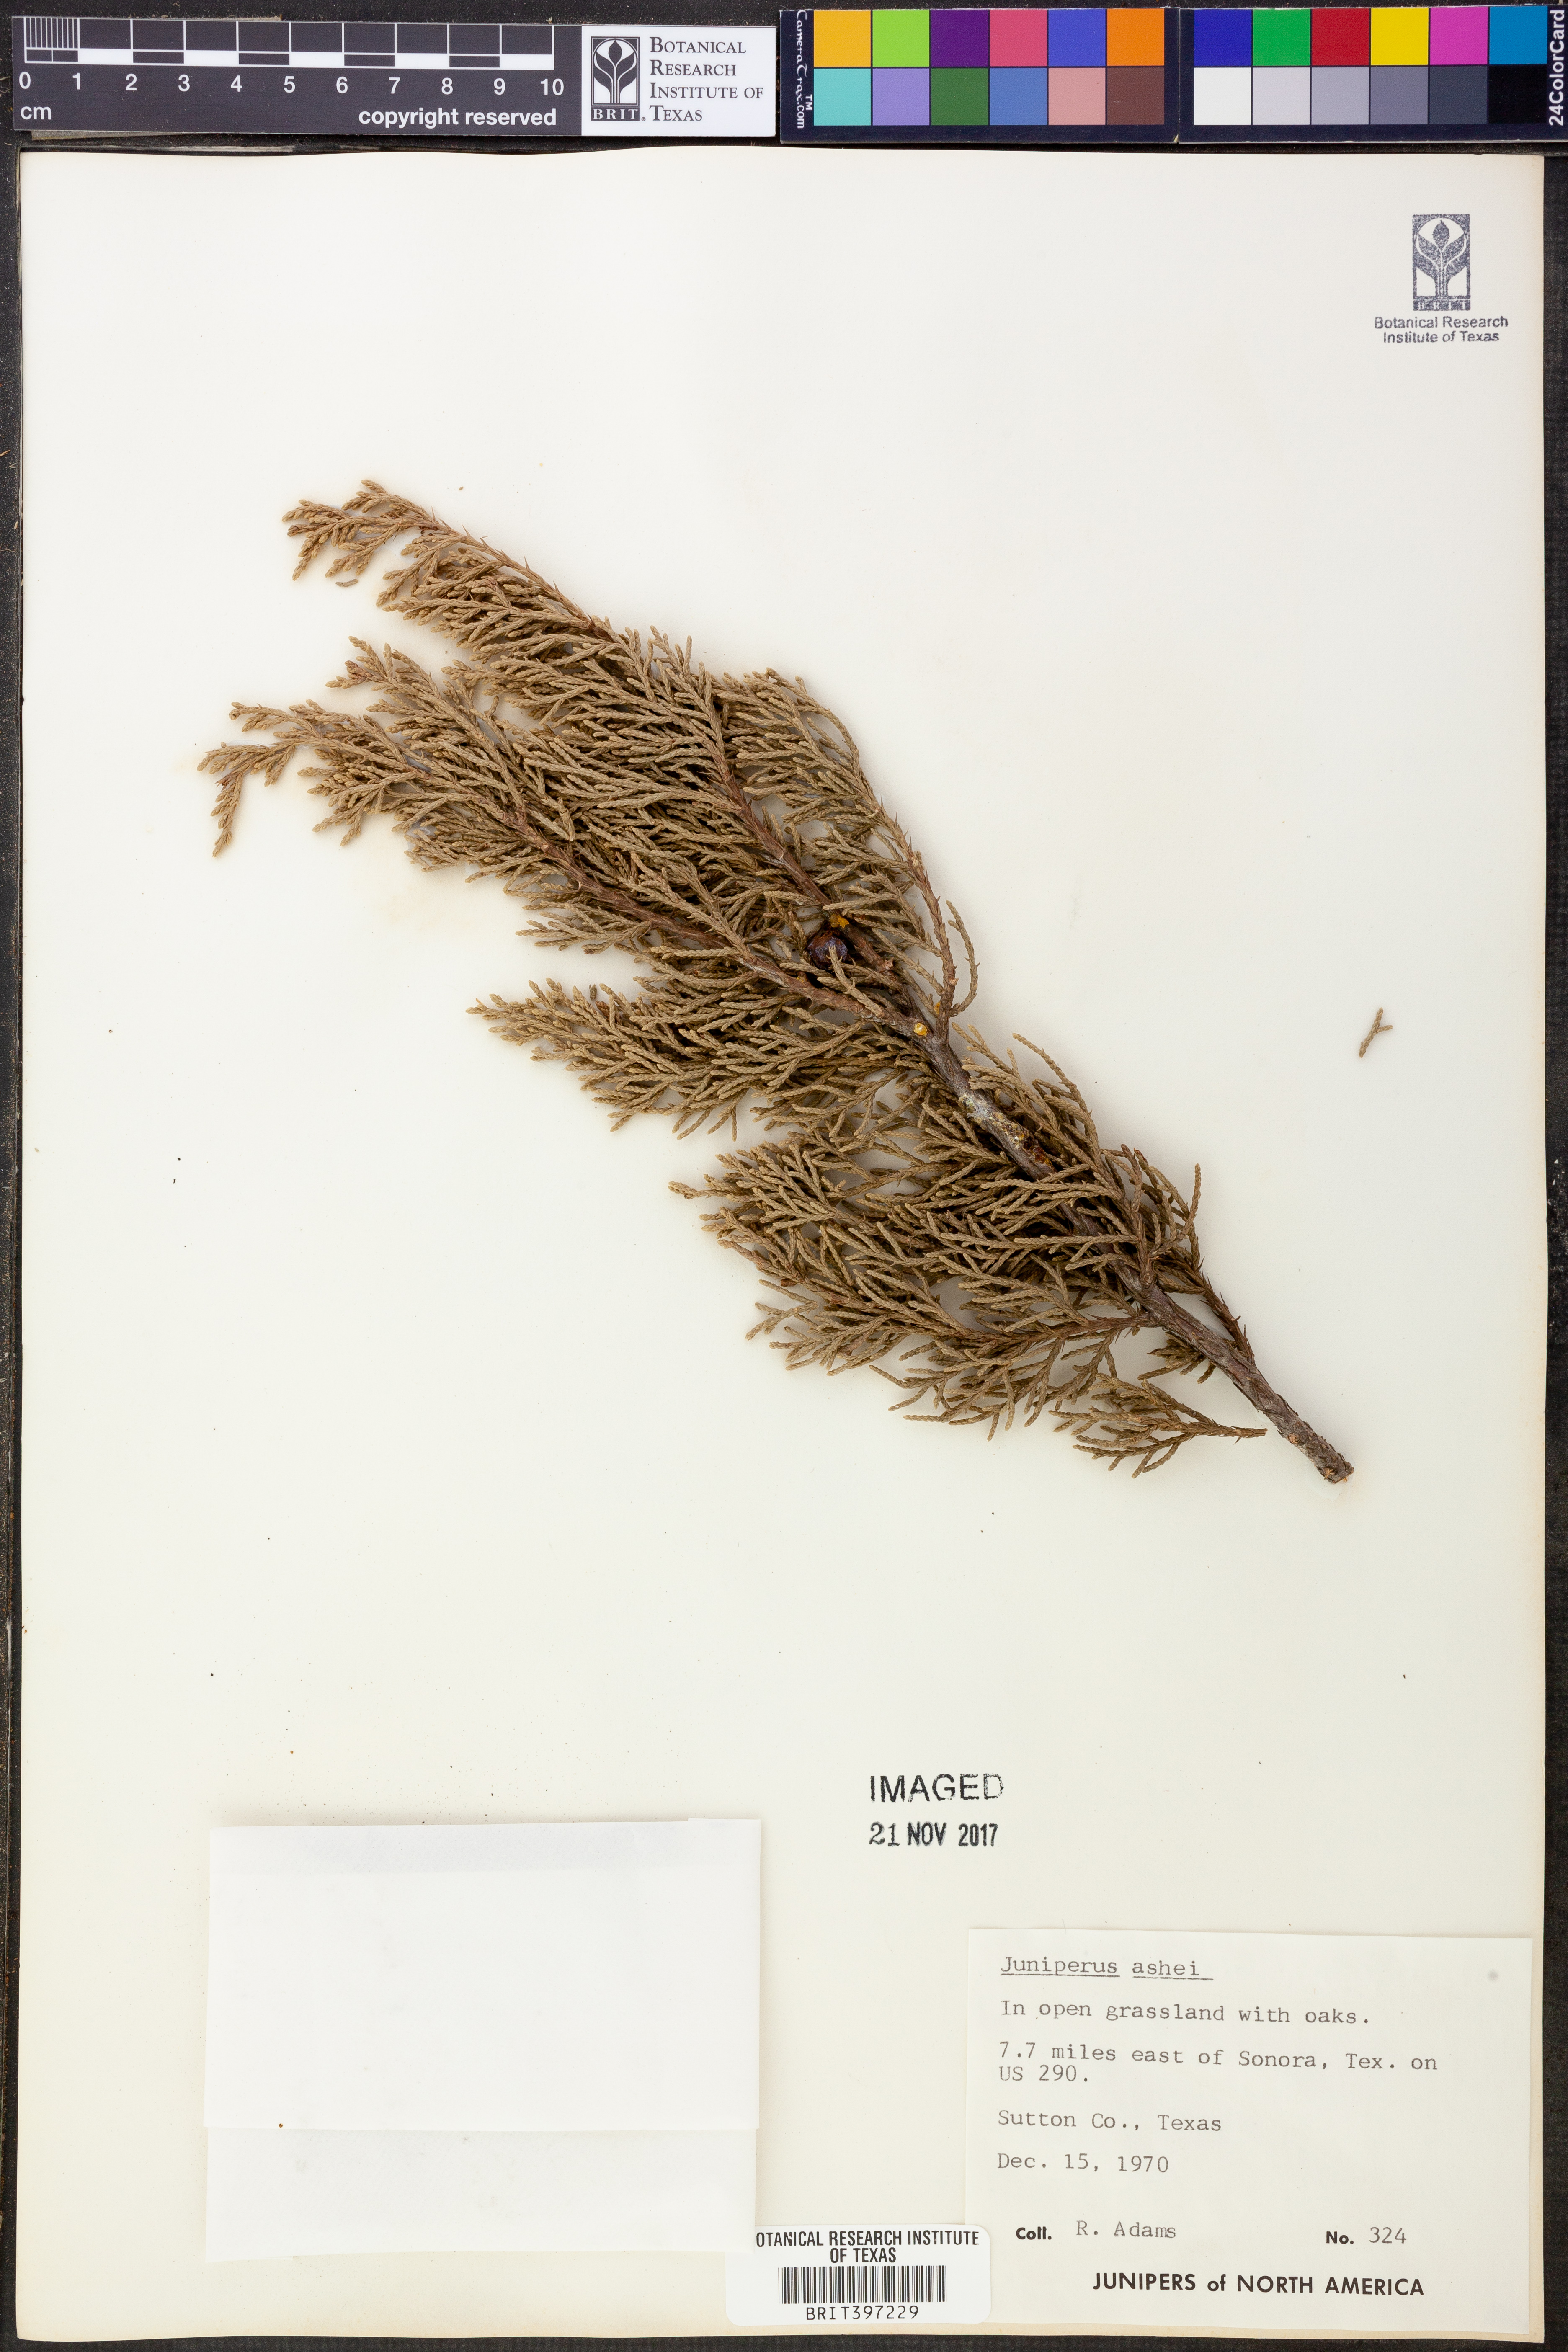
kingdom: Plantae
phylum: Tracheophyta
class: Pinopsida
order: Pinales
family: Cupressaceae
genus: Juniperus
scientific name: Juniperus ashei
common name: Mexican juniper
